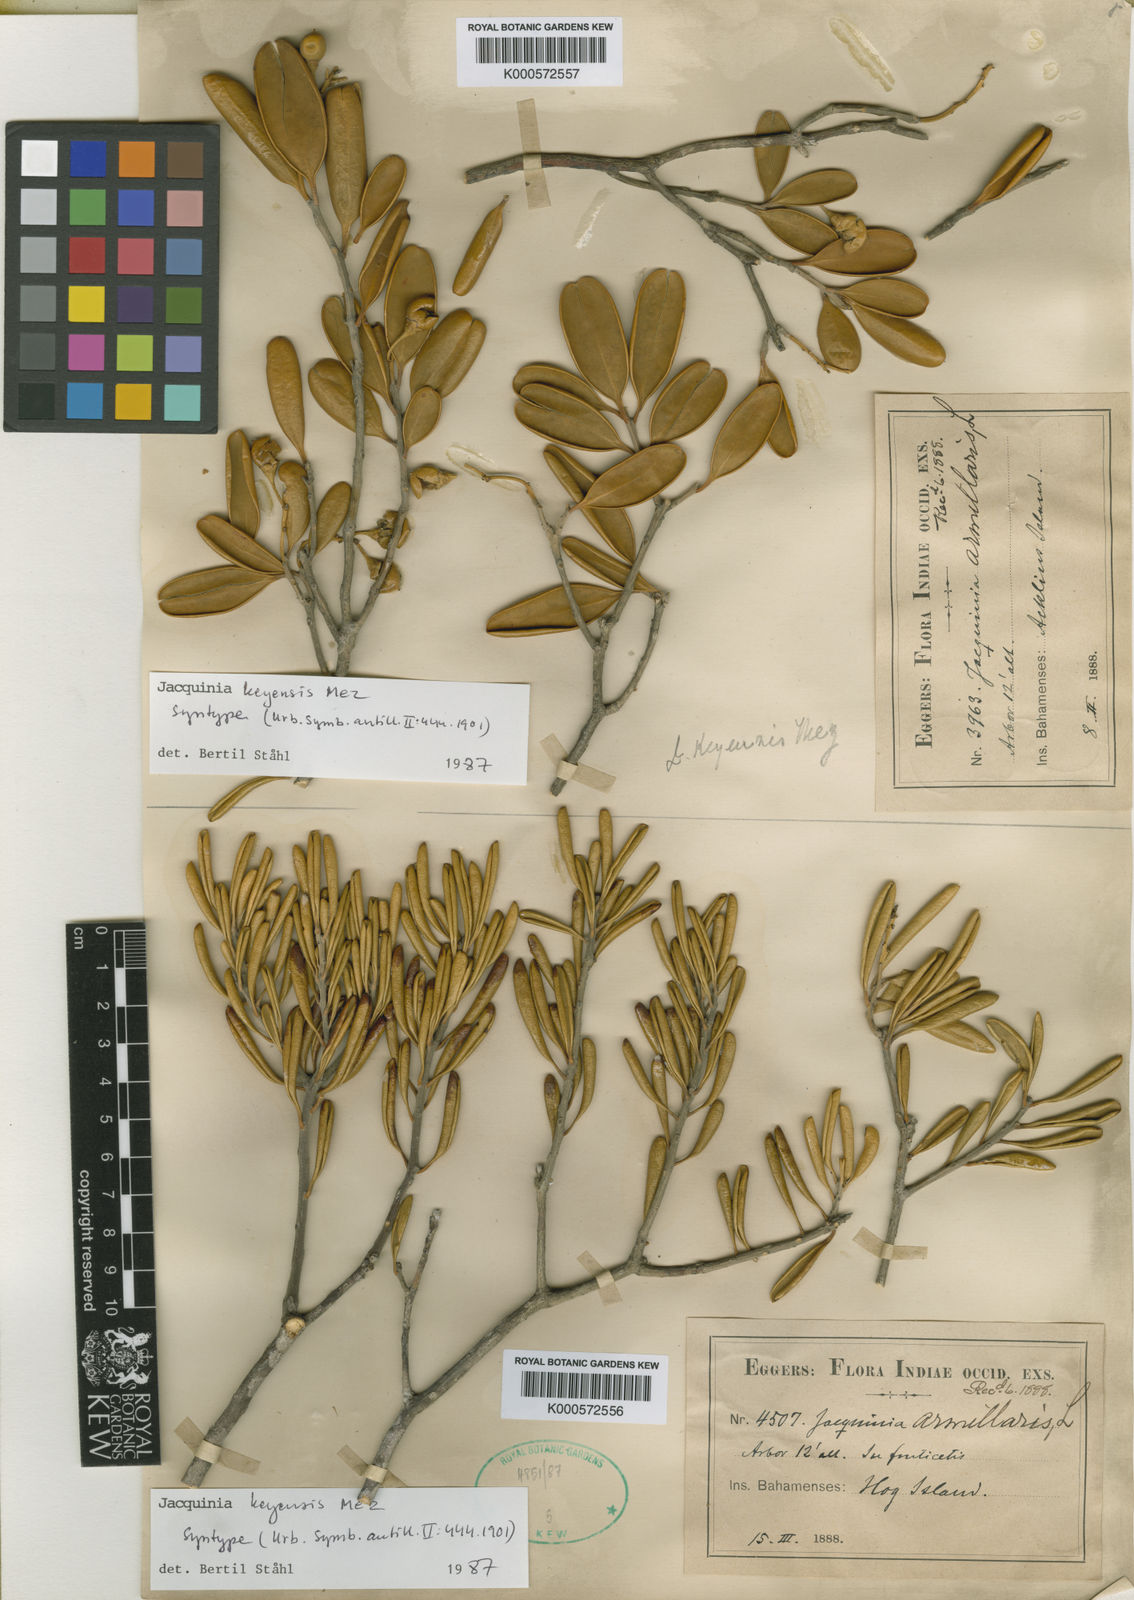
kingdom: Plantae
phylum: Tracheophyta
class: Magnoliopsida
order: Ericales
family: Primulaceae
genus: Jacquinia
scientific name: Jacquinia keyensis
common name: Joebush
